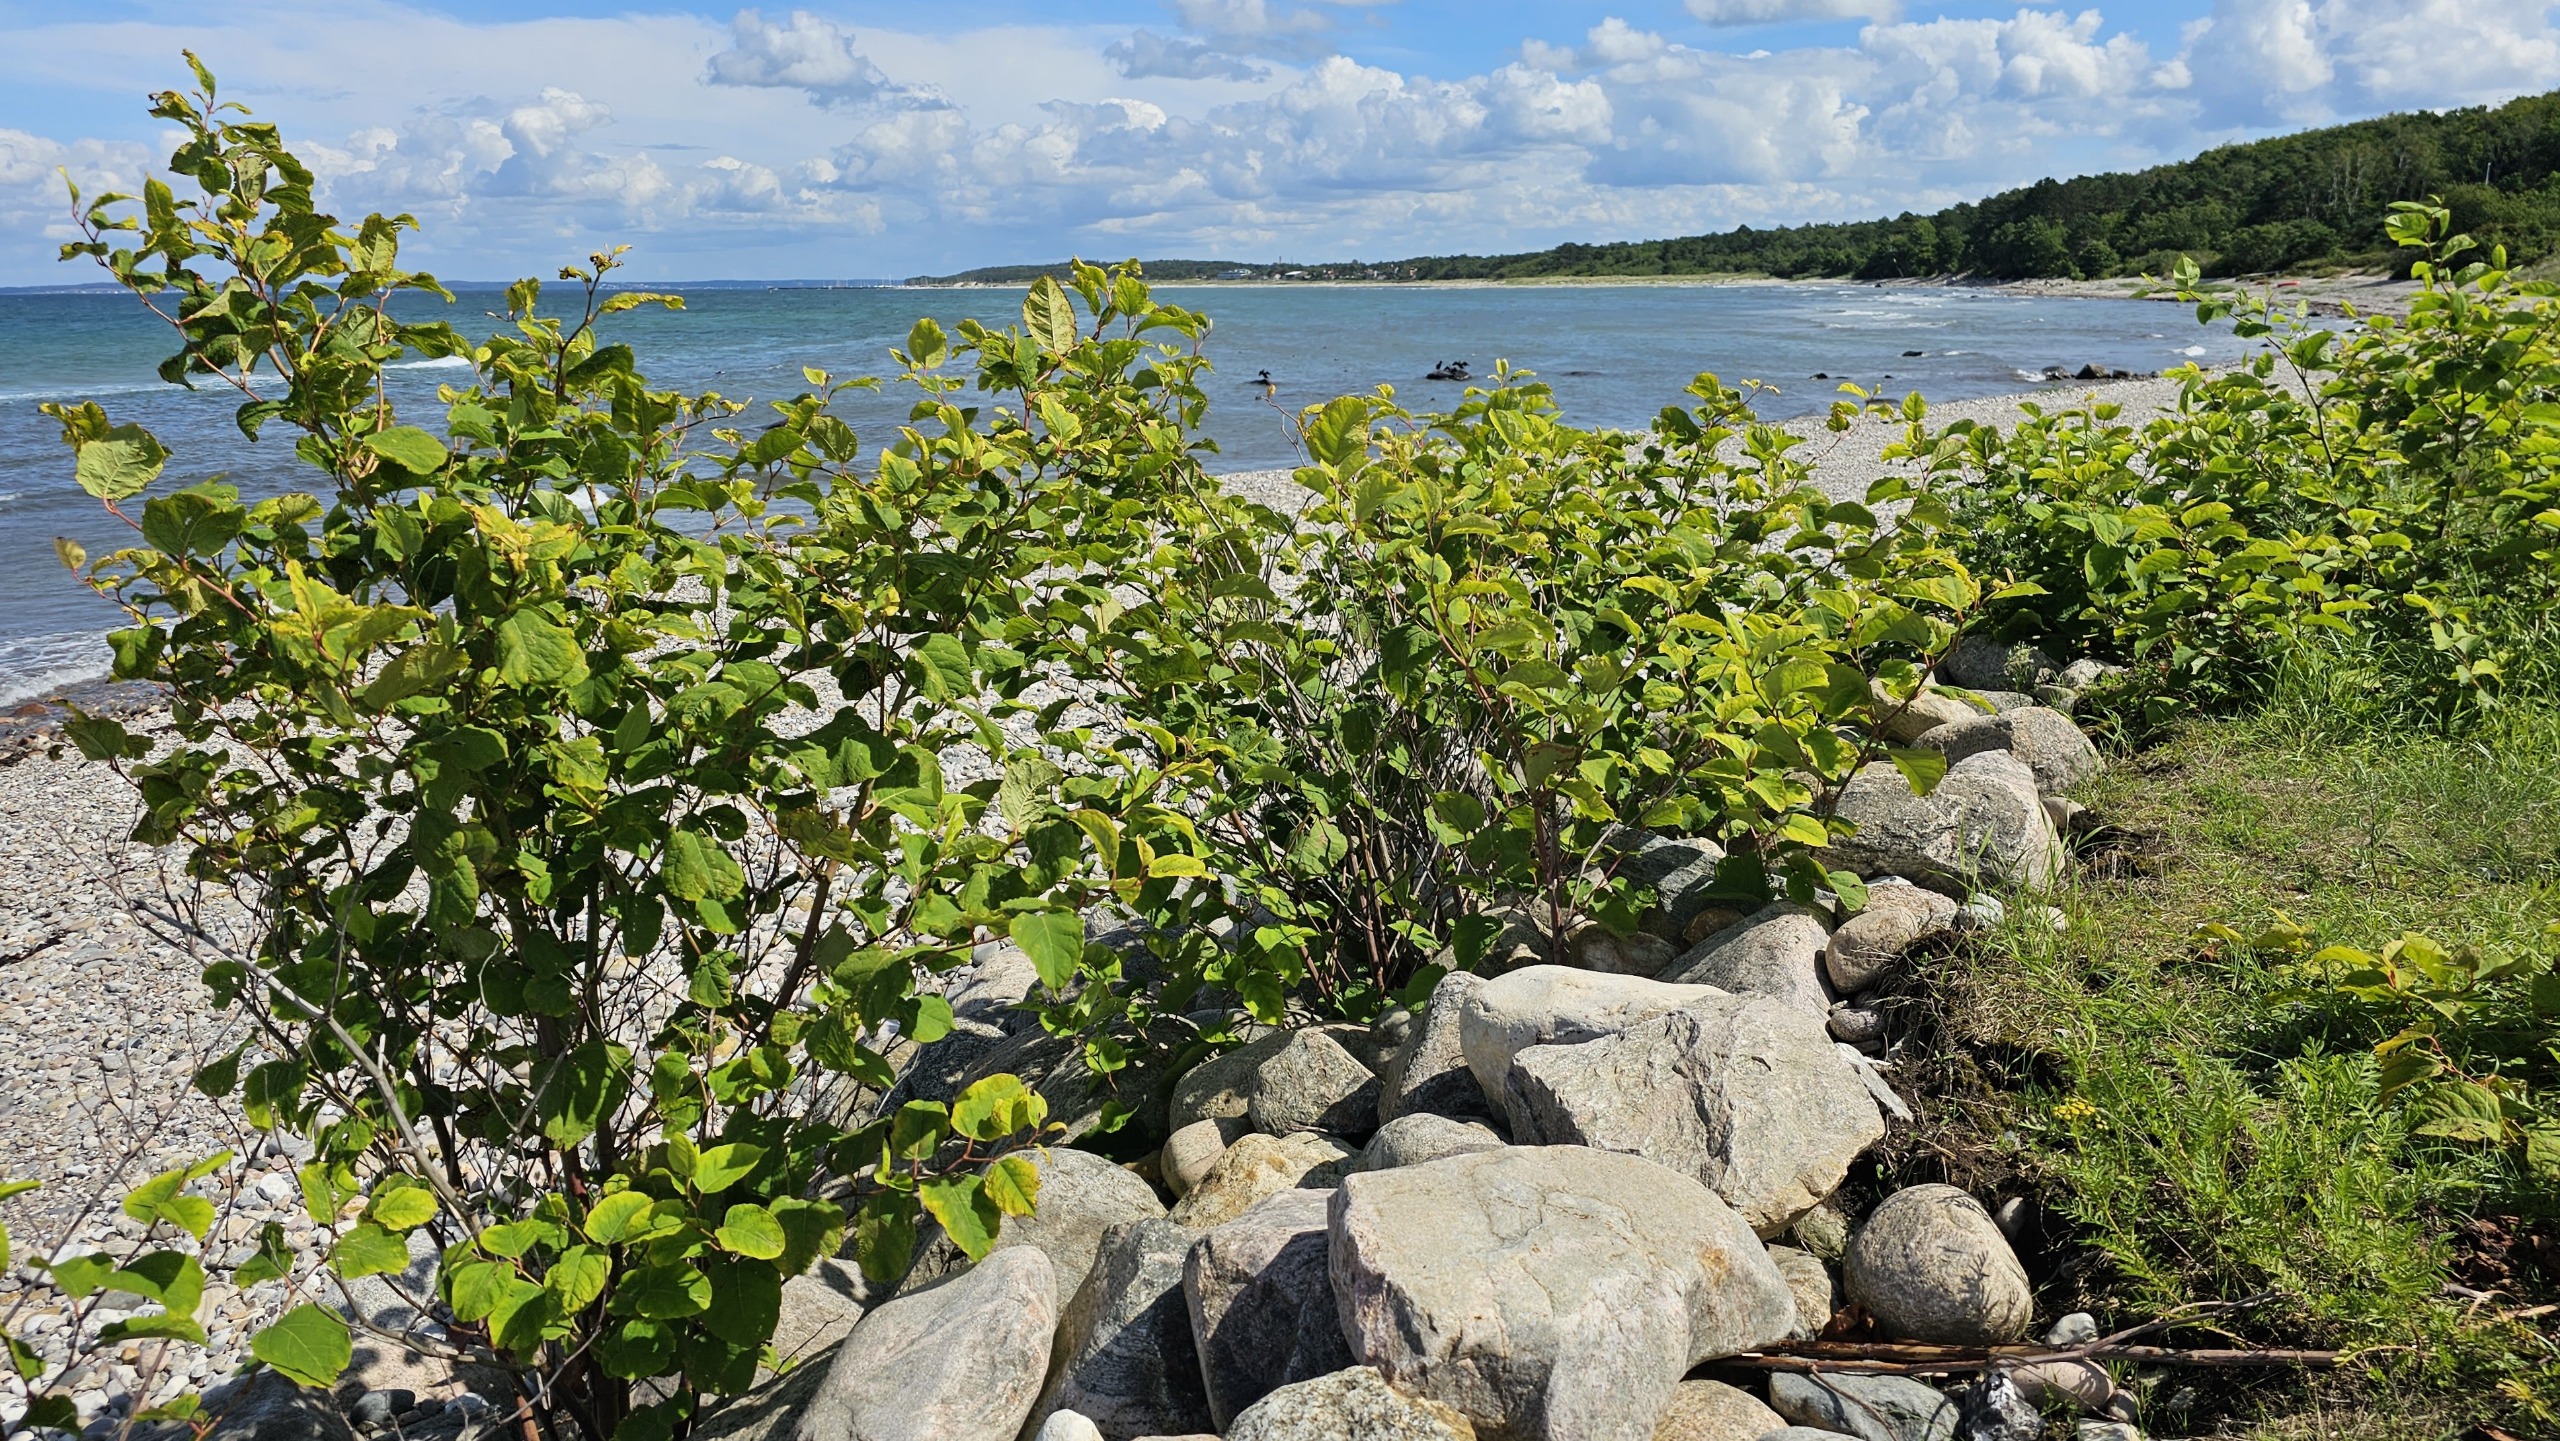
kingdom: Plantae
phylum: Tracheophyta
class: Magnoliopsida
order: Caryophyllales
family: Polygonaceae
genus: Reynoutria
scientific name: Reynoutria japonica
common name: Japan-pileurt
